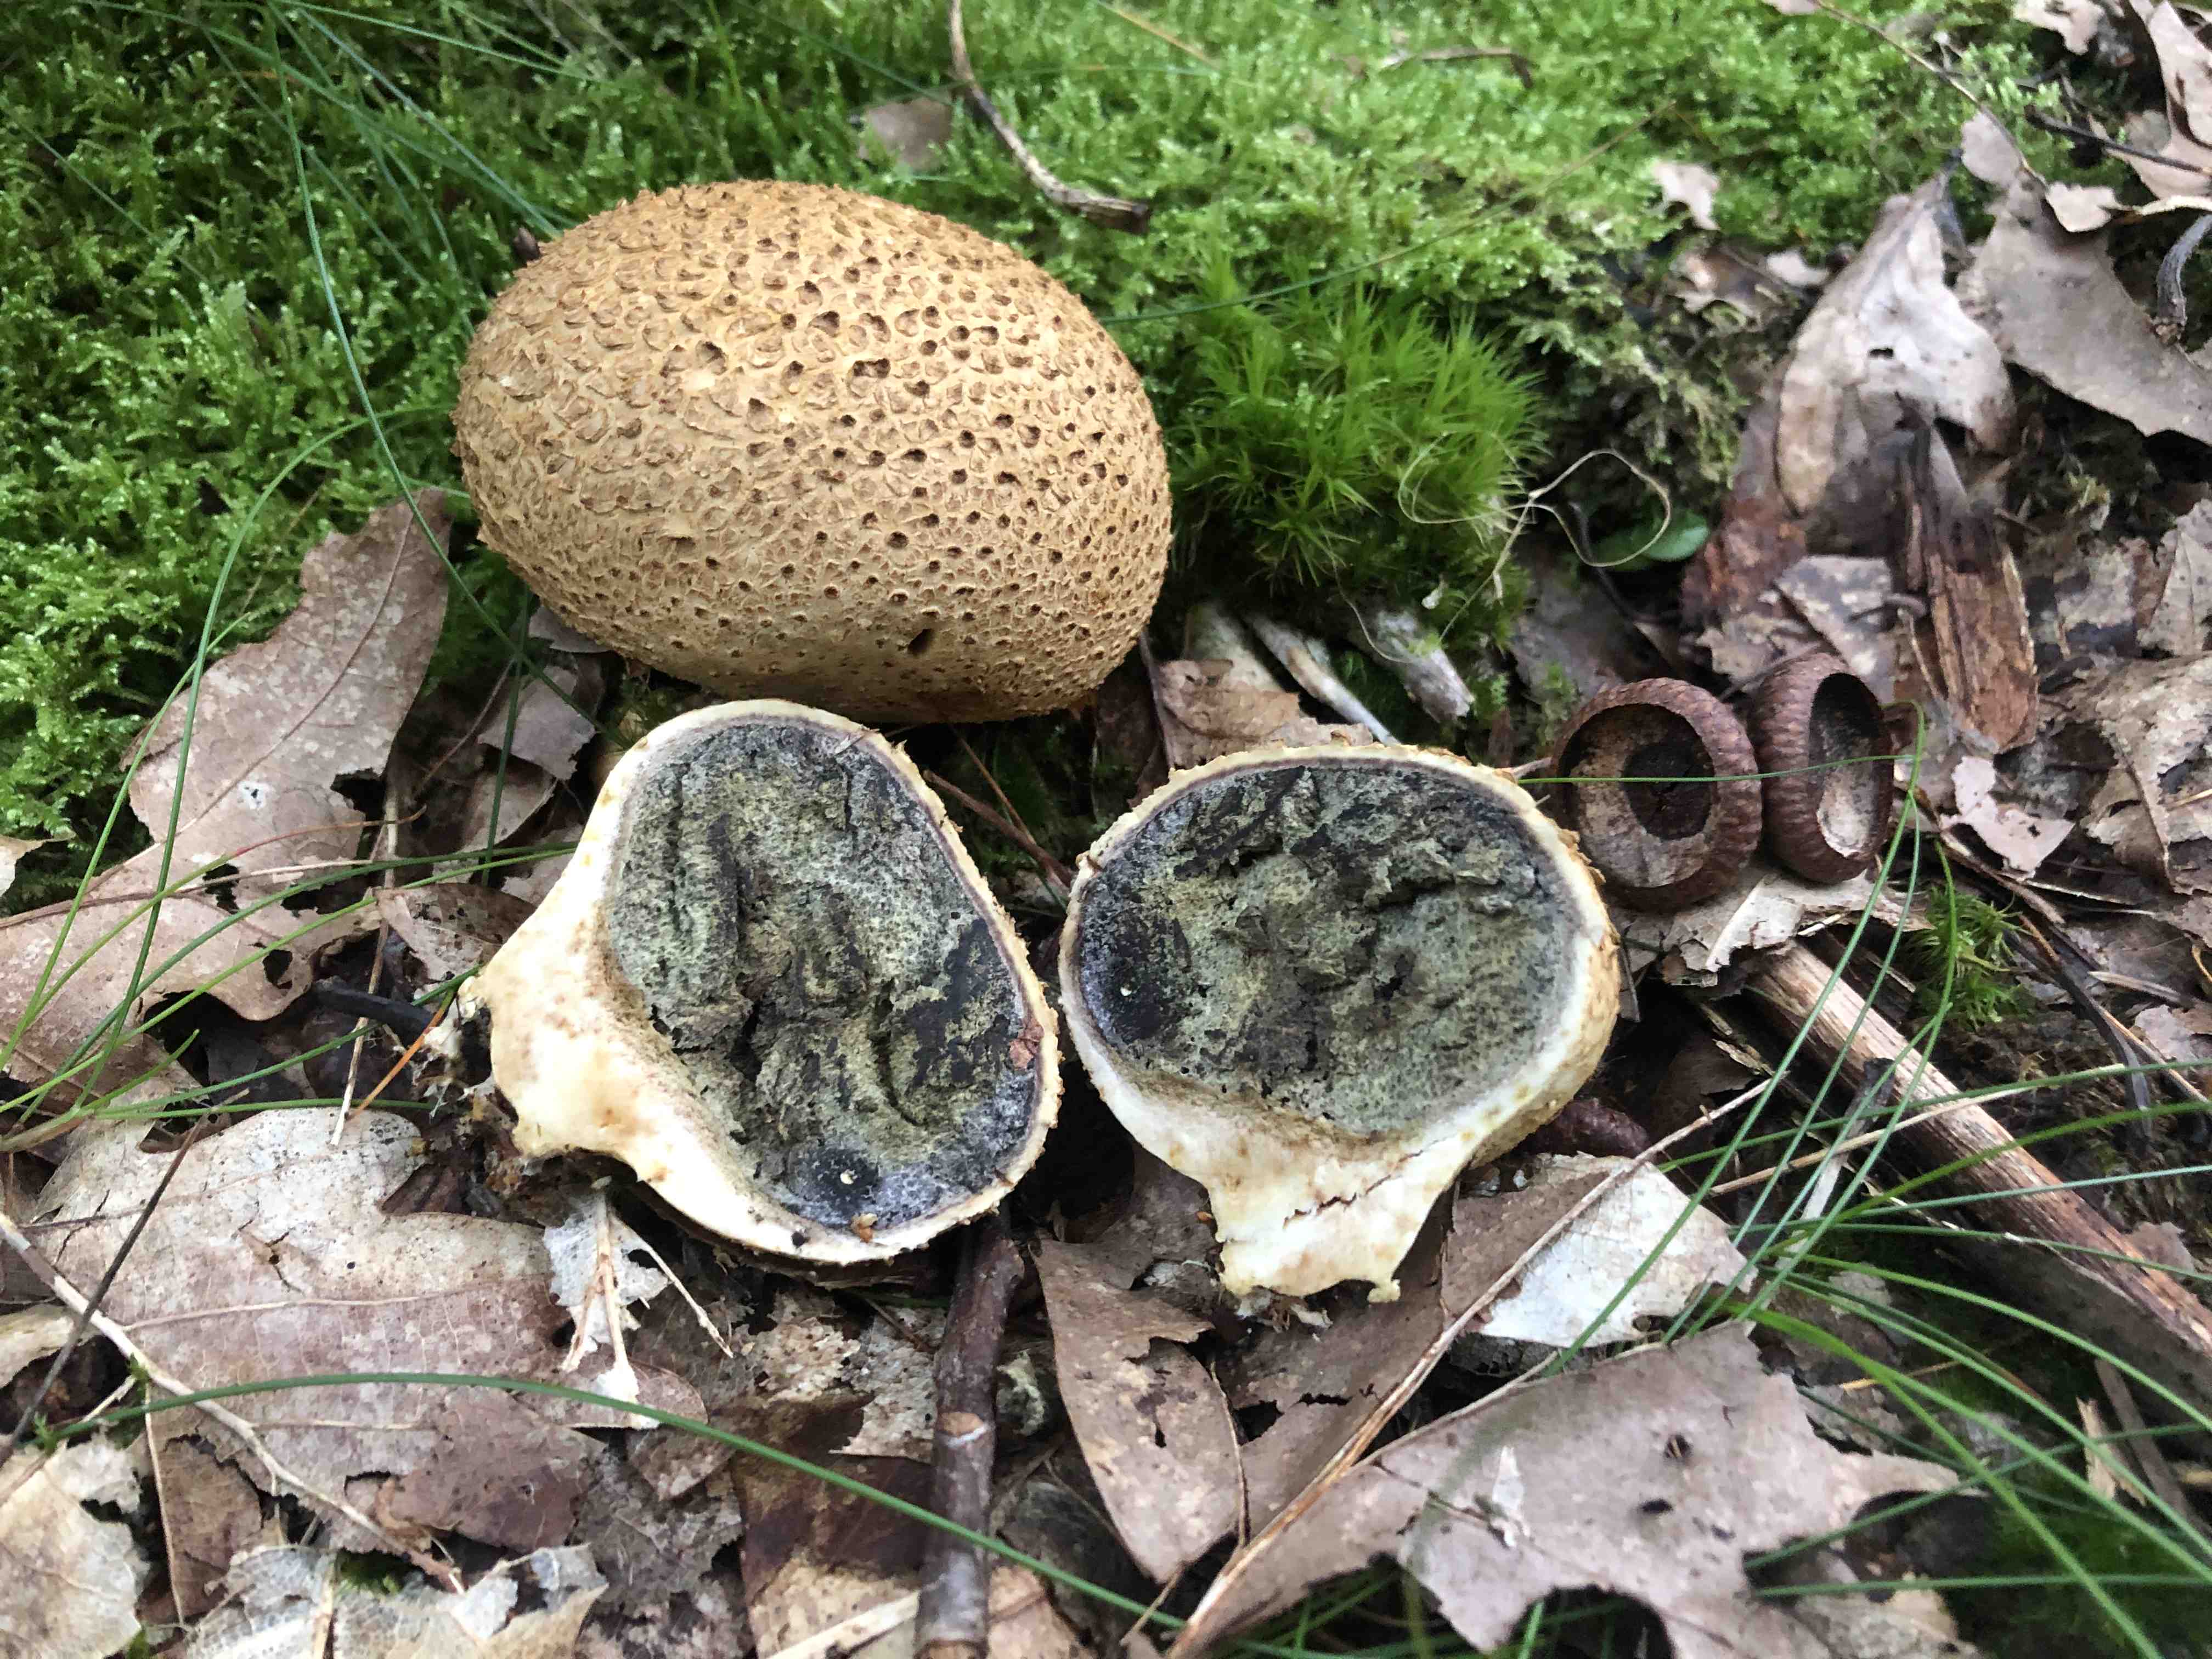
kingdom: Fungi
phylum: Basidiomycota
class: Agaricomycetes
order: Boletales
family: Sclerodermataceae
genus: Scleroderma
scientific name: Scleroderma citrinum
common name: almindelig bruskbold
